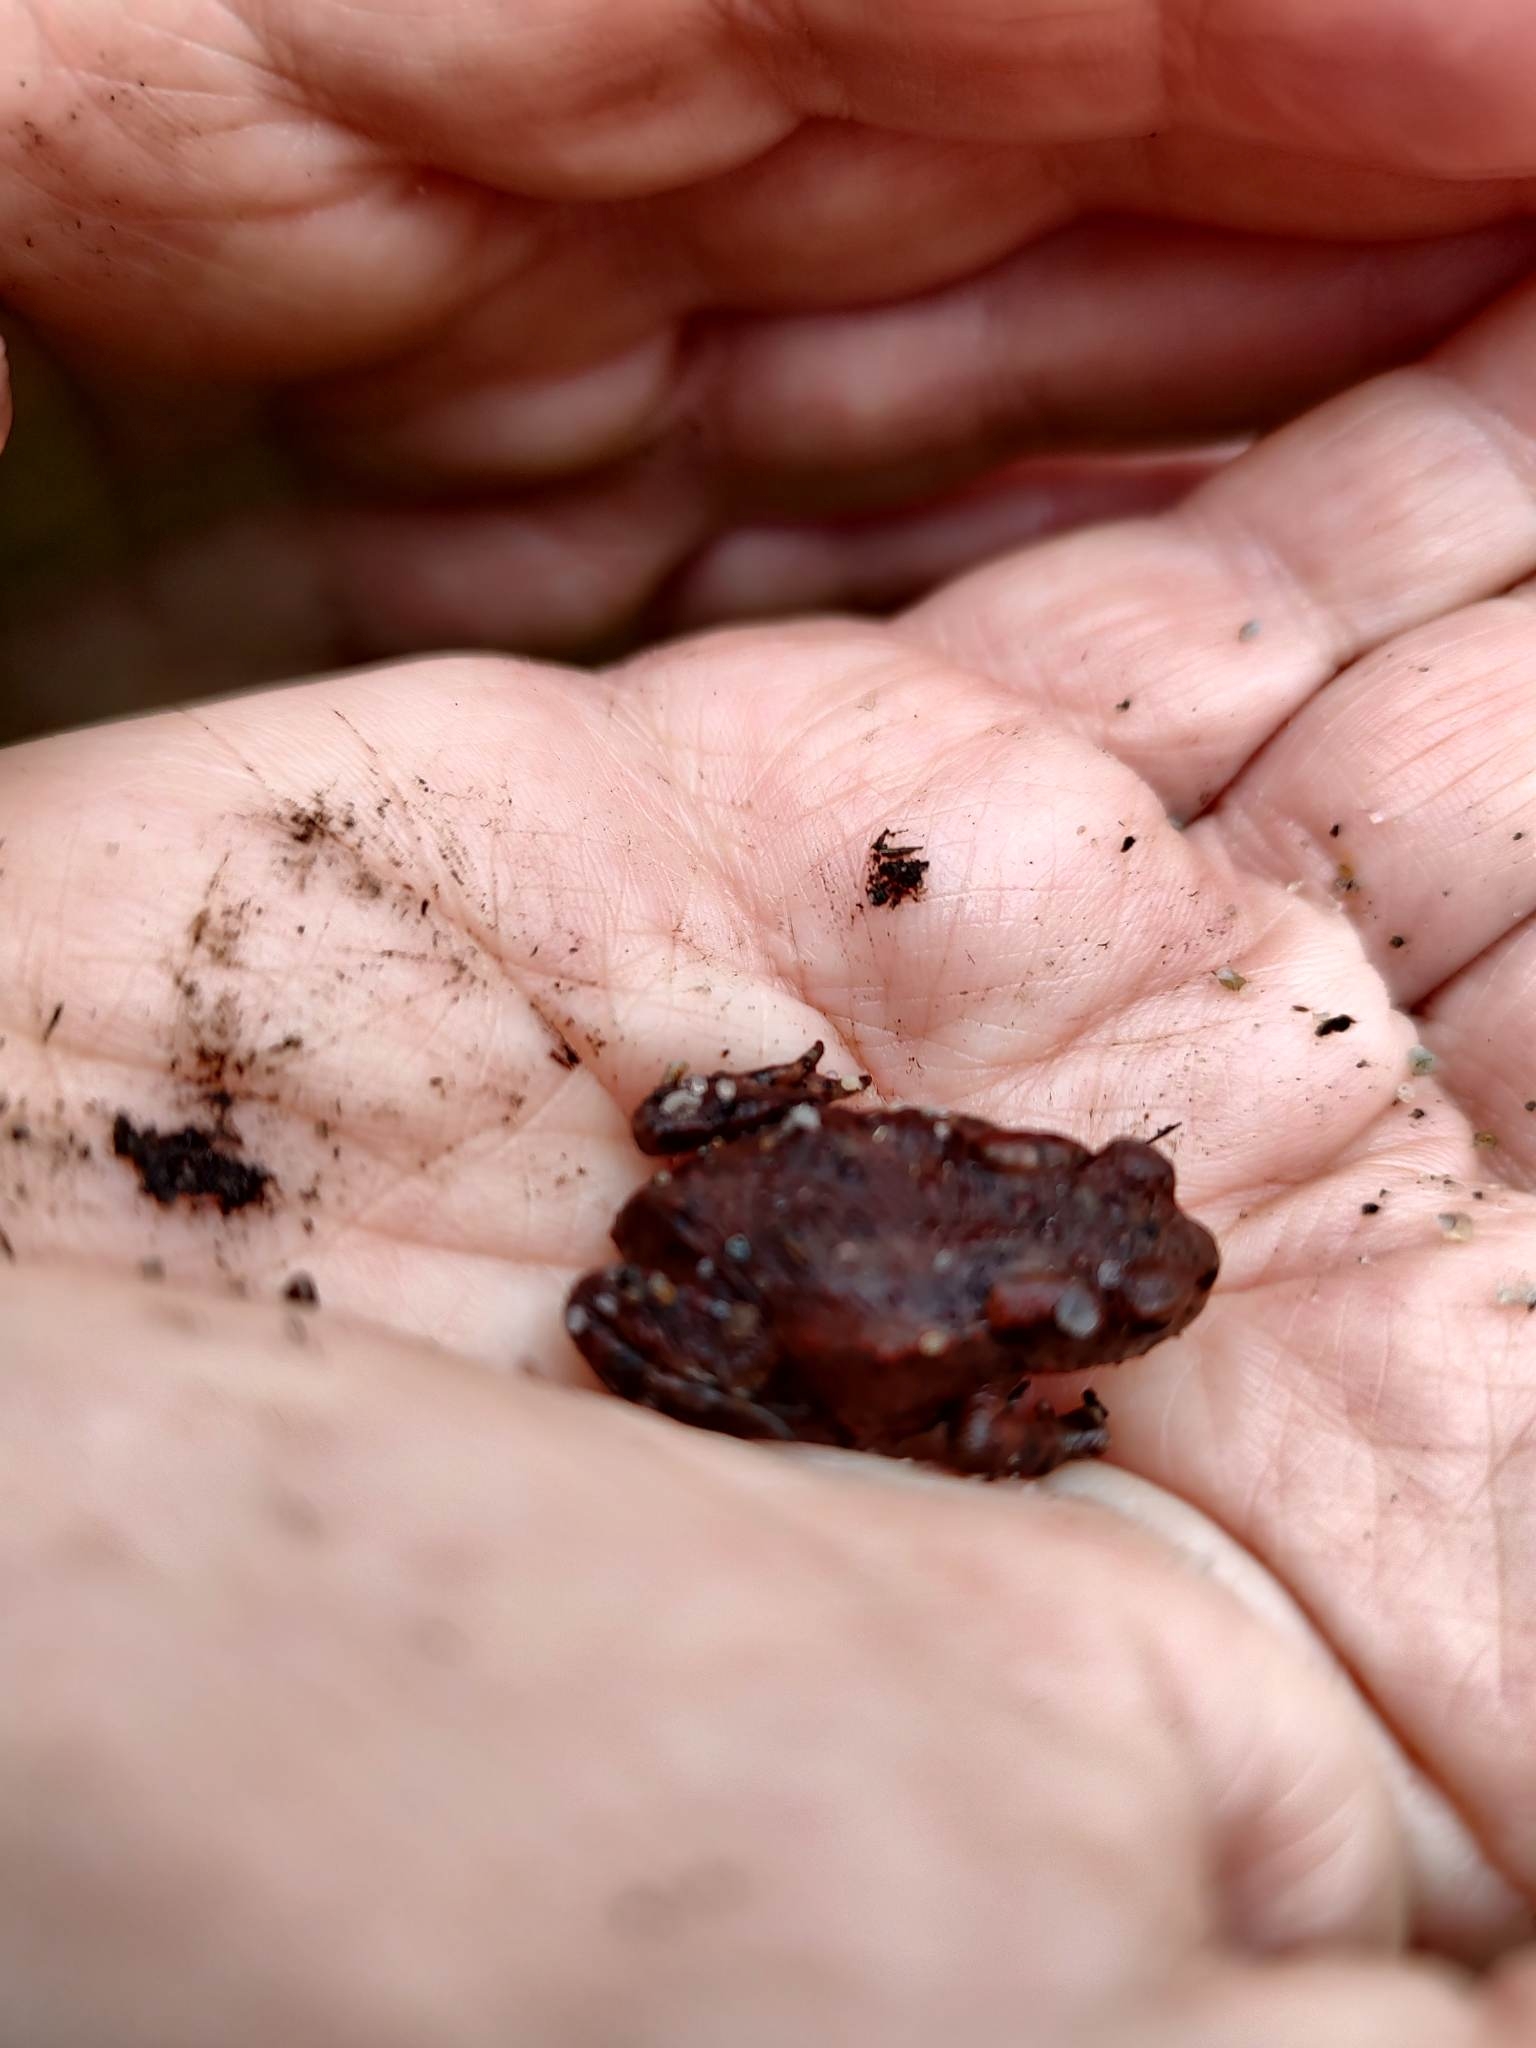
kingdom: Animalia
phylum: Chordata
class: Amphibia
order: Anura
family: Bufonidae
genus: Bufo
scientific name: Bufo bufo
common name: Skrubtudse
